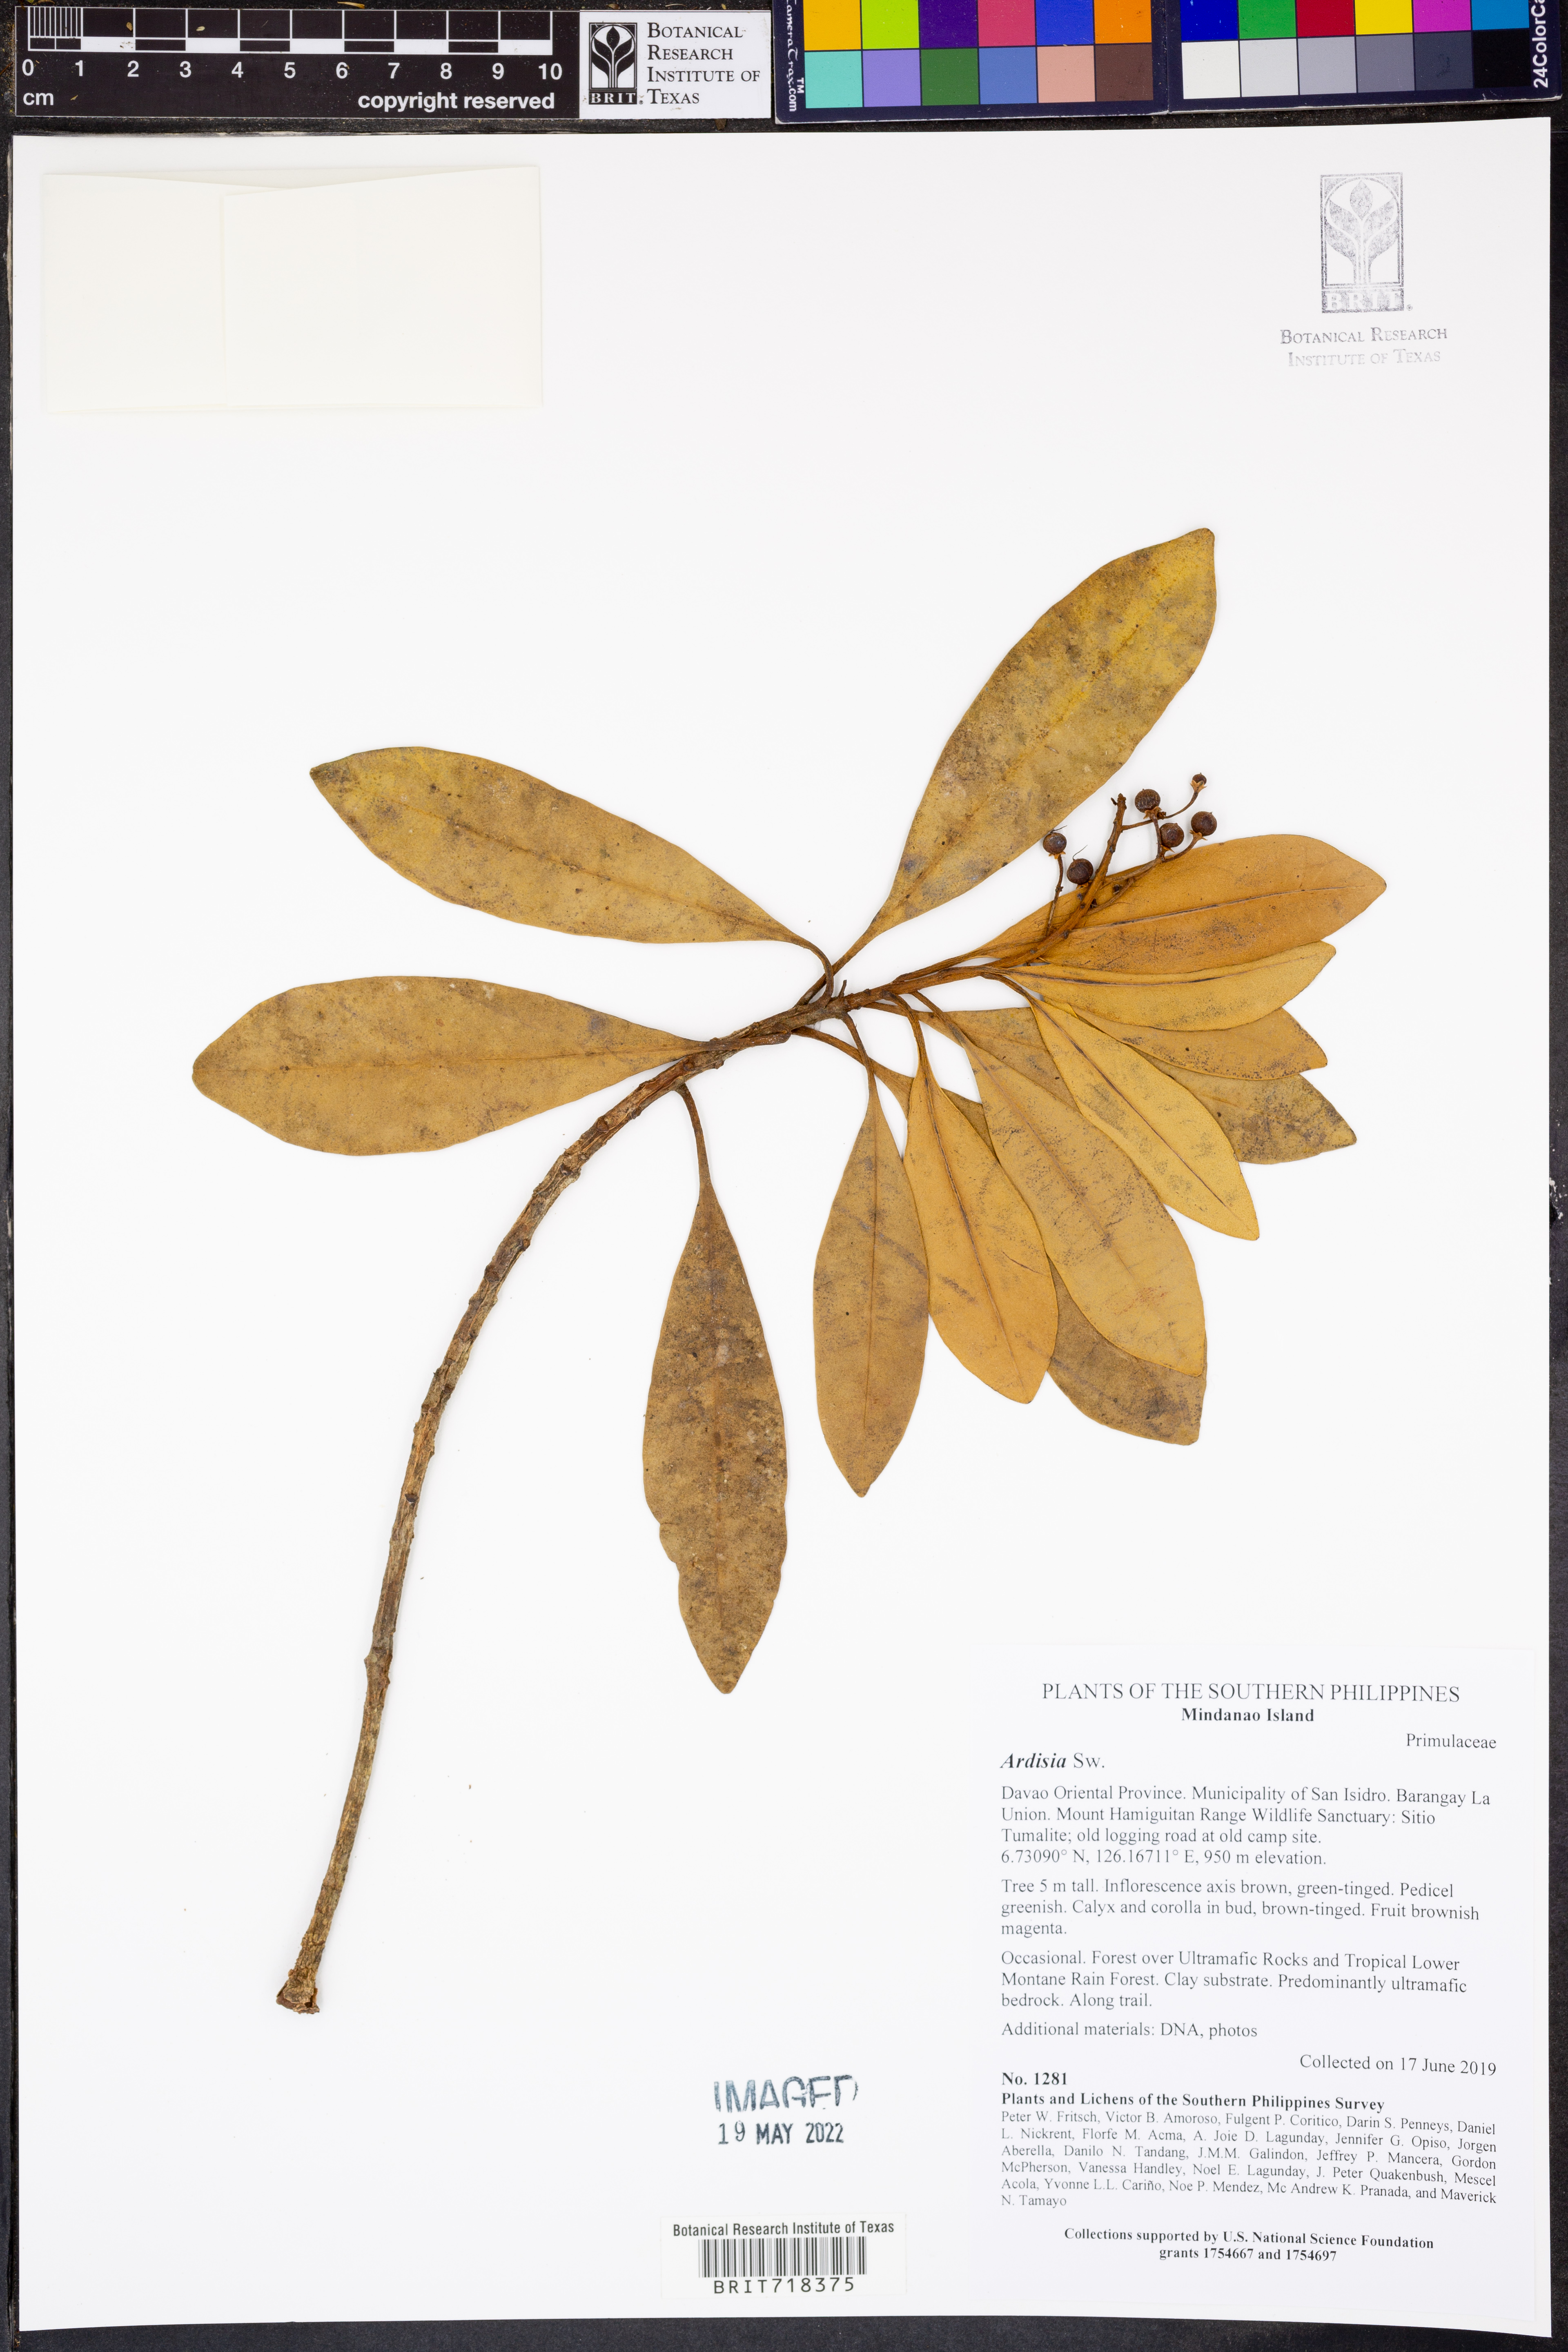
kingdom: Plantae
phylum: Tracheophyta
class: Magnoliopsida
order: Ericales
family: Primulaceae
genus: Ardisia
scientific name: Ardisia
